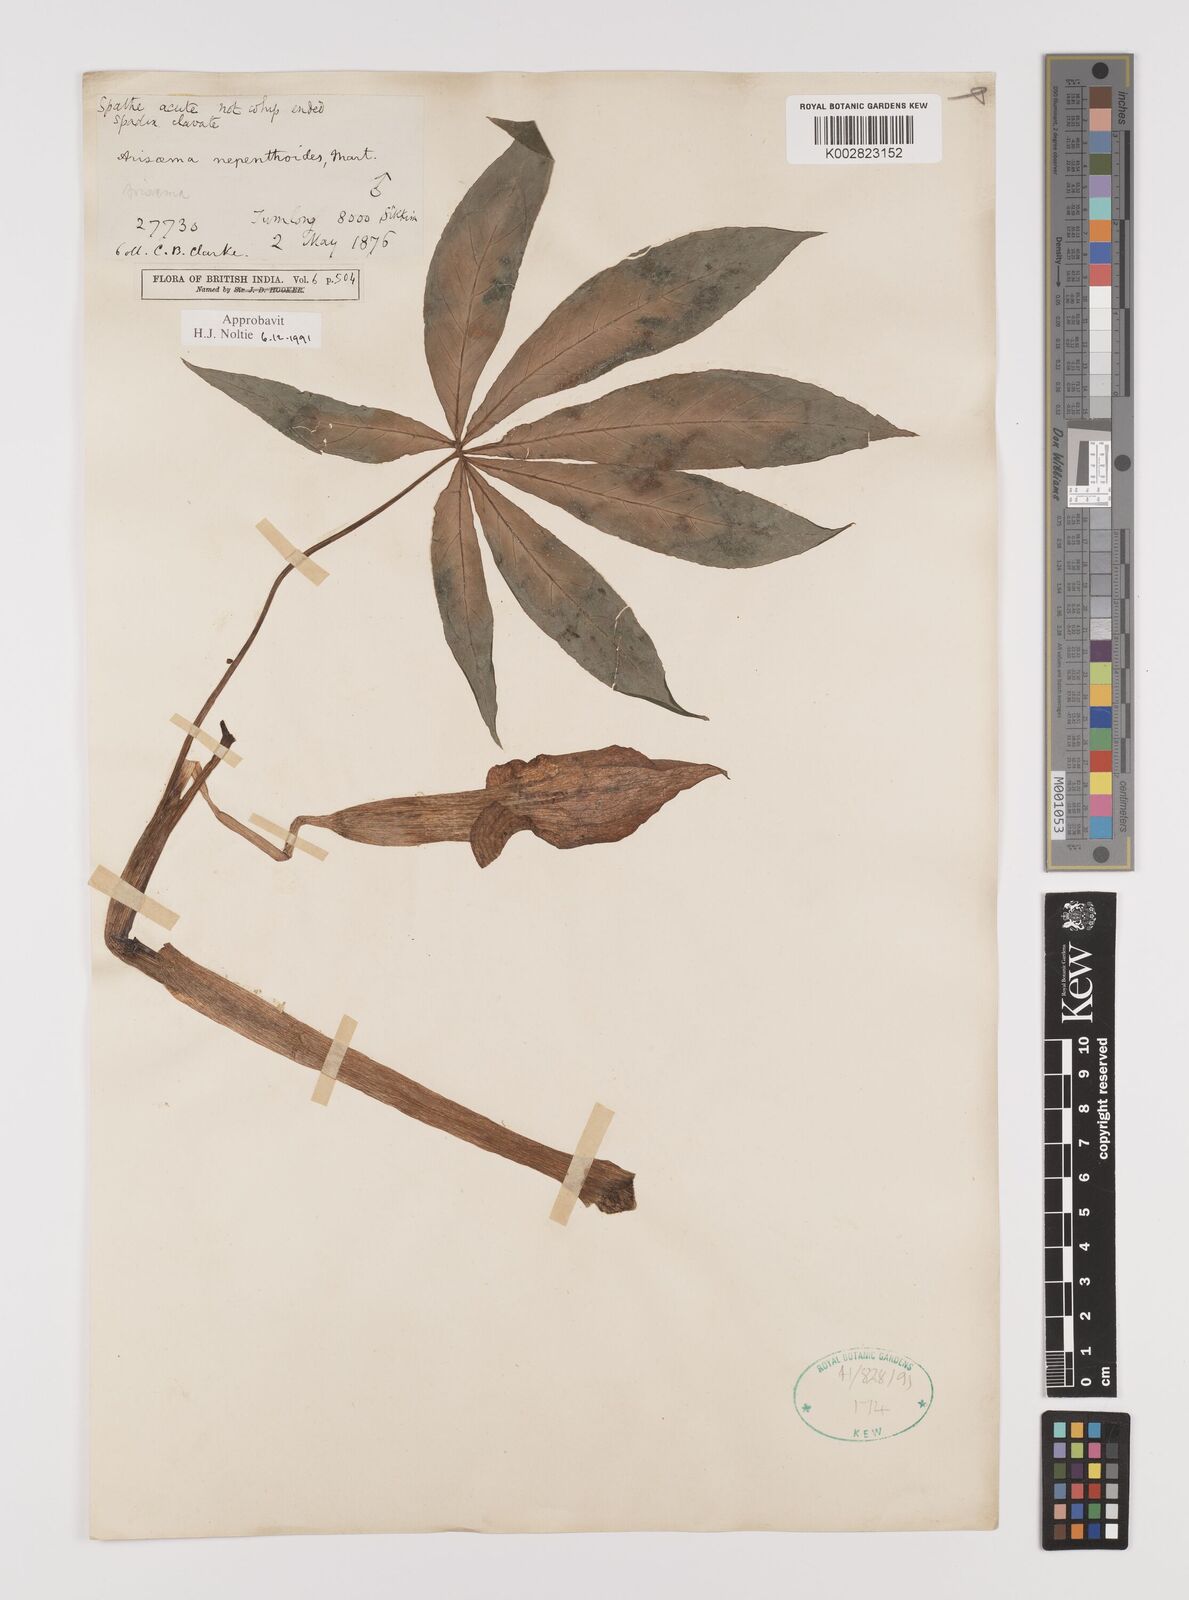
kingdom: Plantae
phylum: Tracheophyta
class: Liliopsida
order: Alismatales
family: Araceae
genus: Arisaema
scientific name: Arisaema nepenthoides
